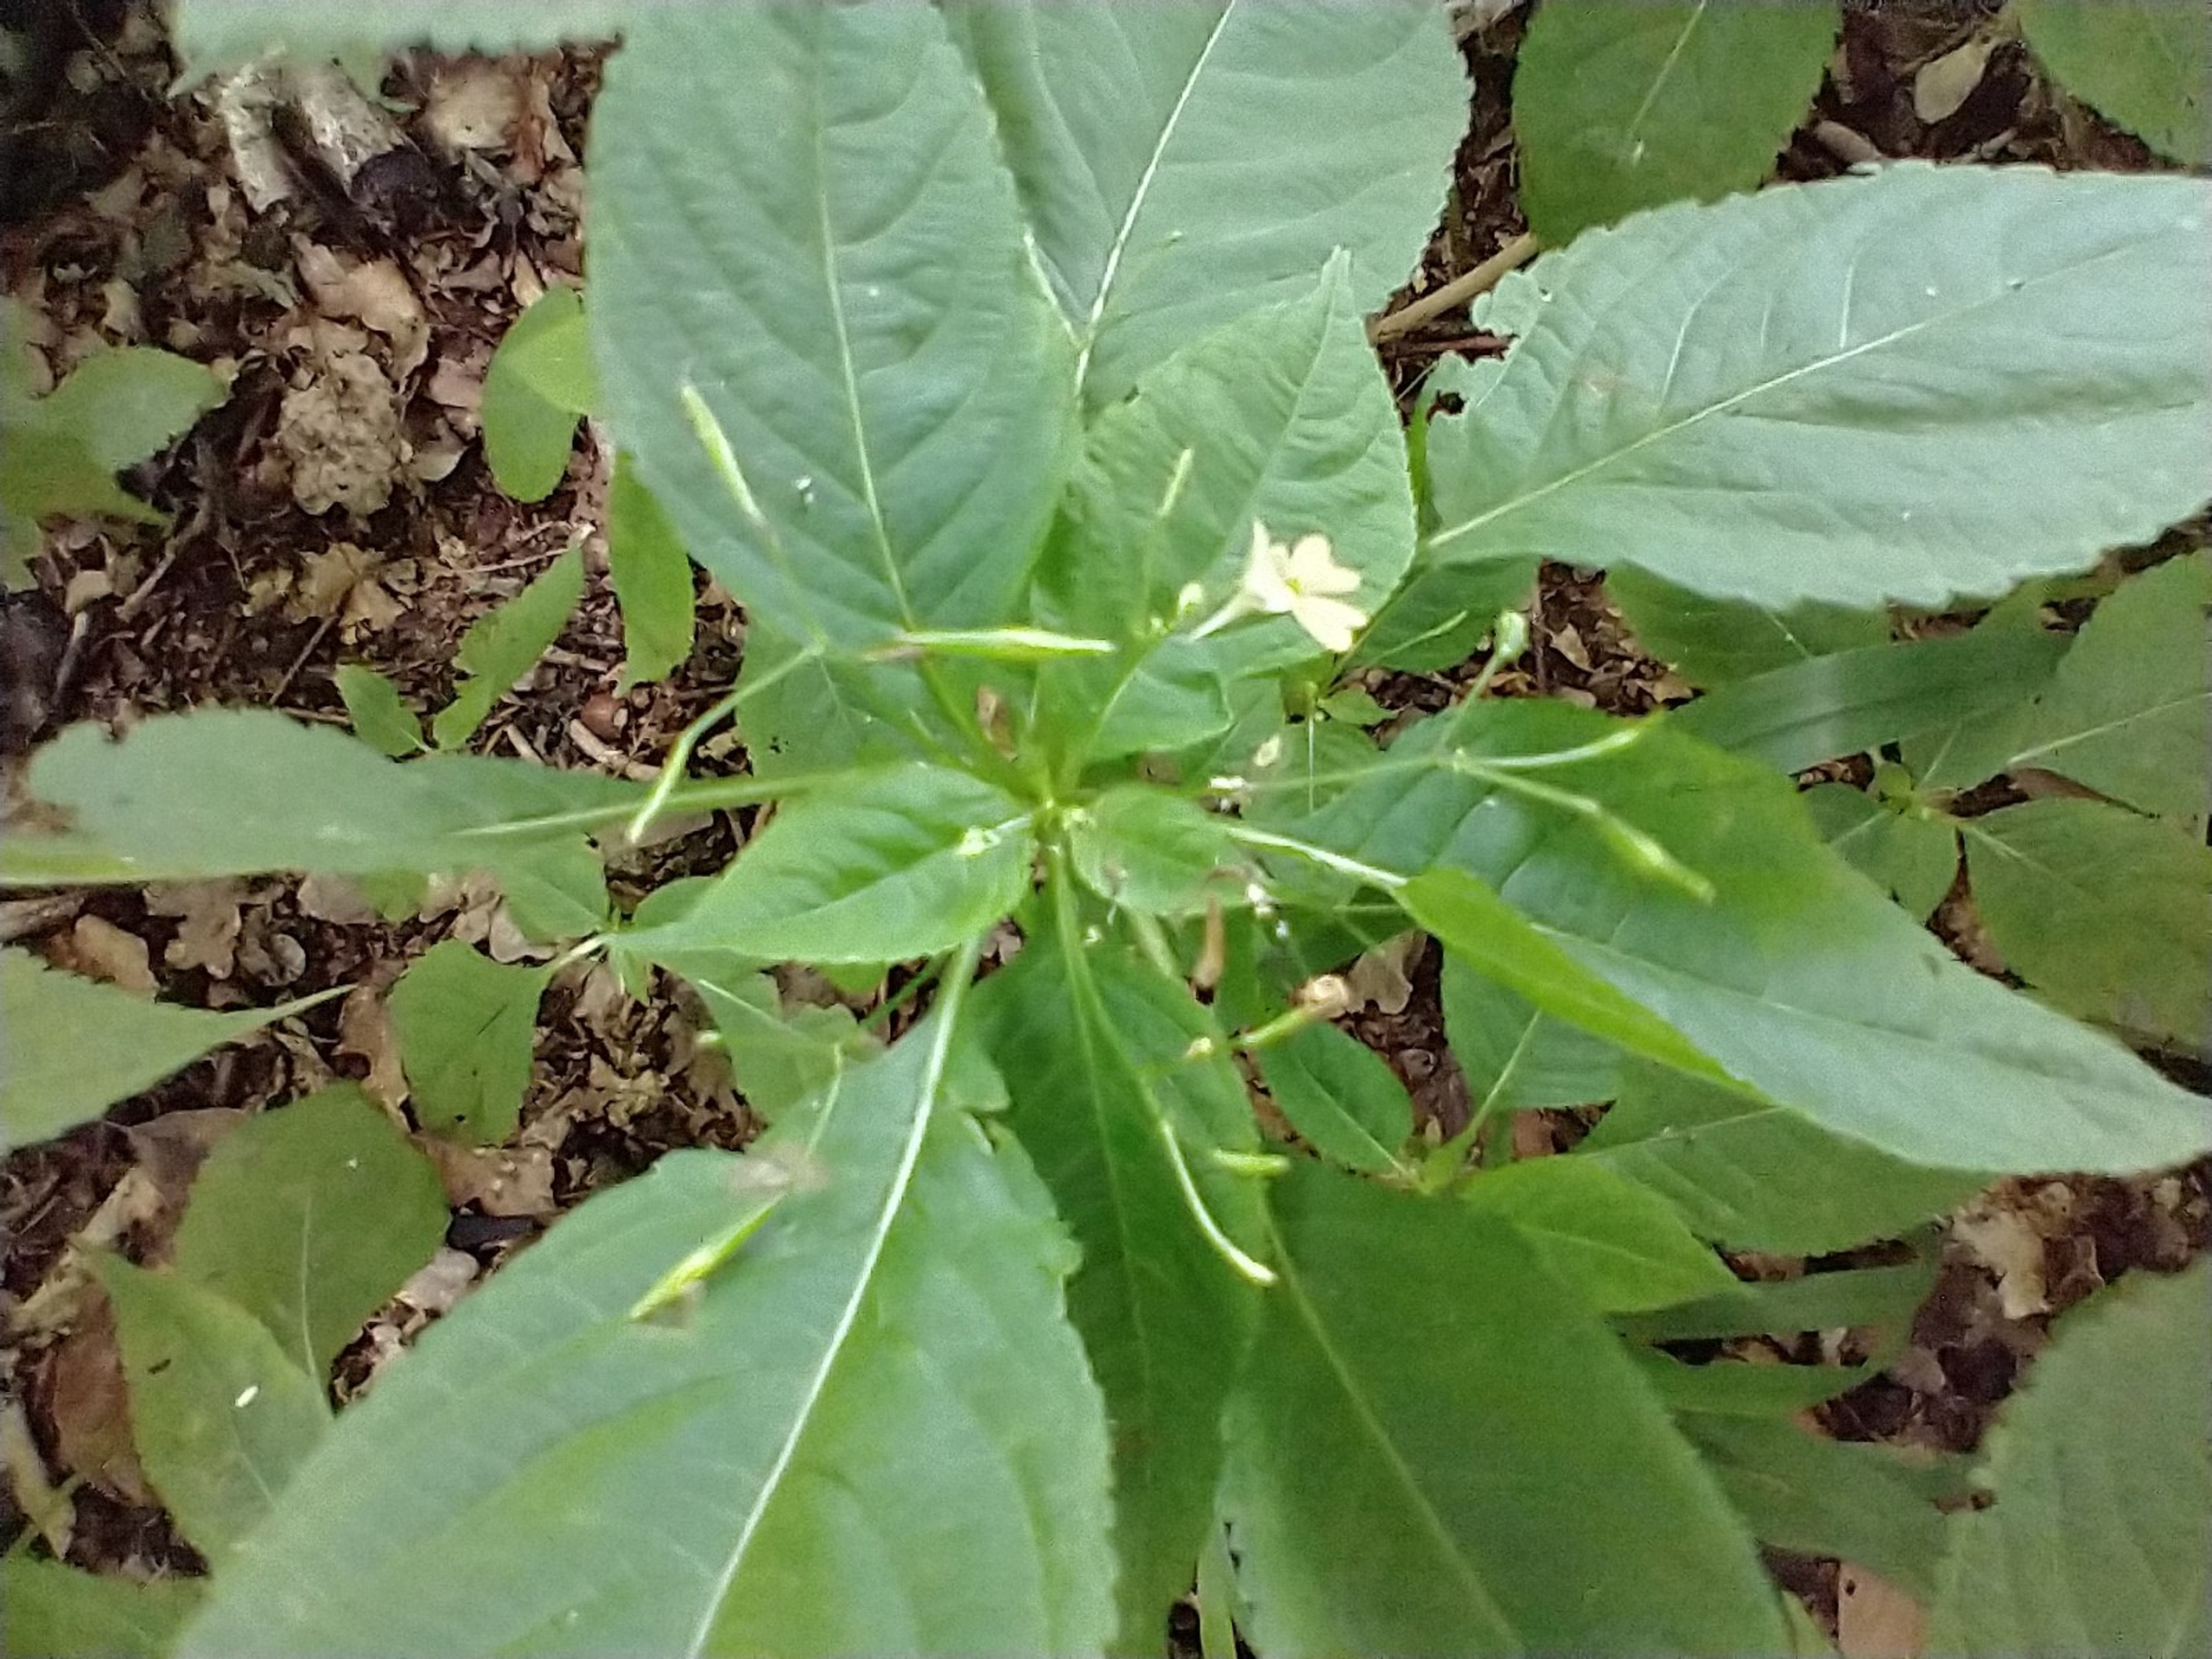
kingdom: Plantae
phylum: Tracheophyta
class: Magnoliopsida
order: Ericales
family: Balsaminaceae
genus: Impatiens
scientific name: Impatiens parviflora
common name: Småblomstret balsamin
